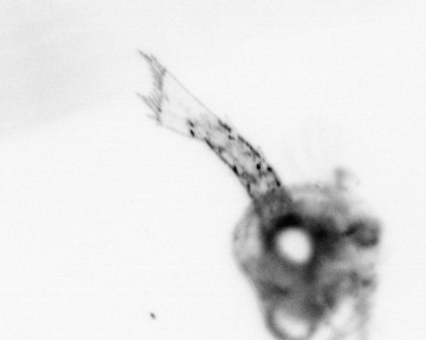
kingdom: Animalia
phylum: Arthropoda
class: Malacostraca
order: Decapoda
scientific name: Decapoda
